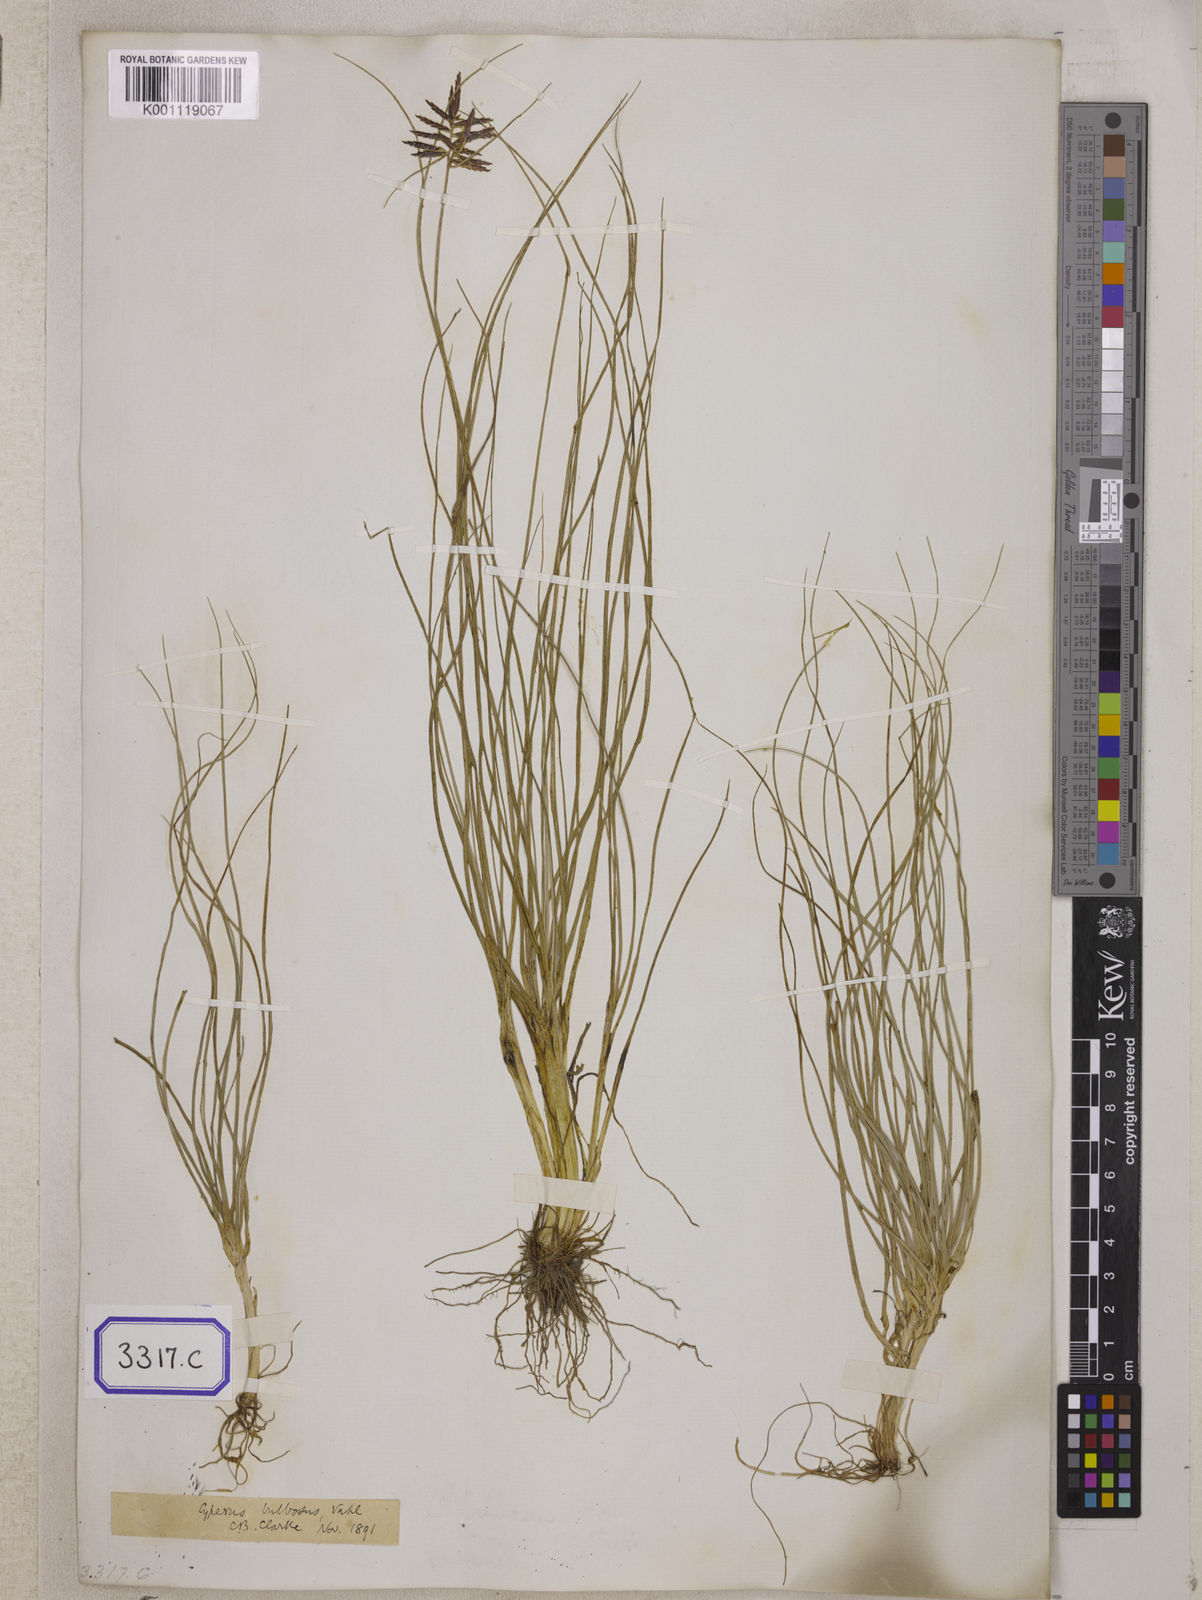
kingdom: Plantae
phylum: Tracheophyta
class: Liliopsida
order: Poales
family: Cyperaceae
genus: Cyperus
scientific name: Cyperus
